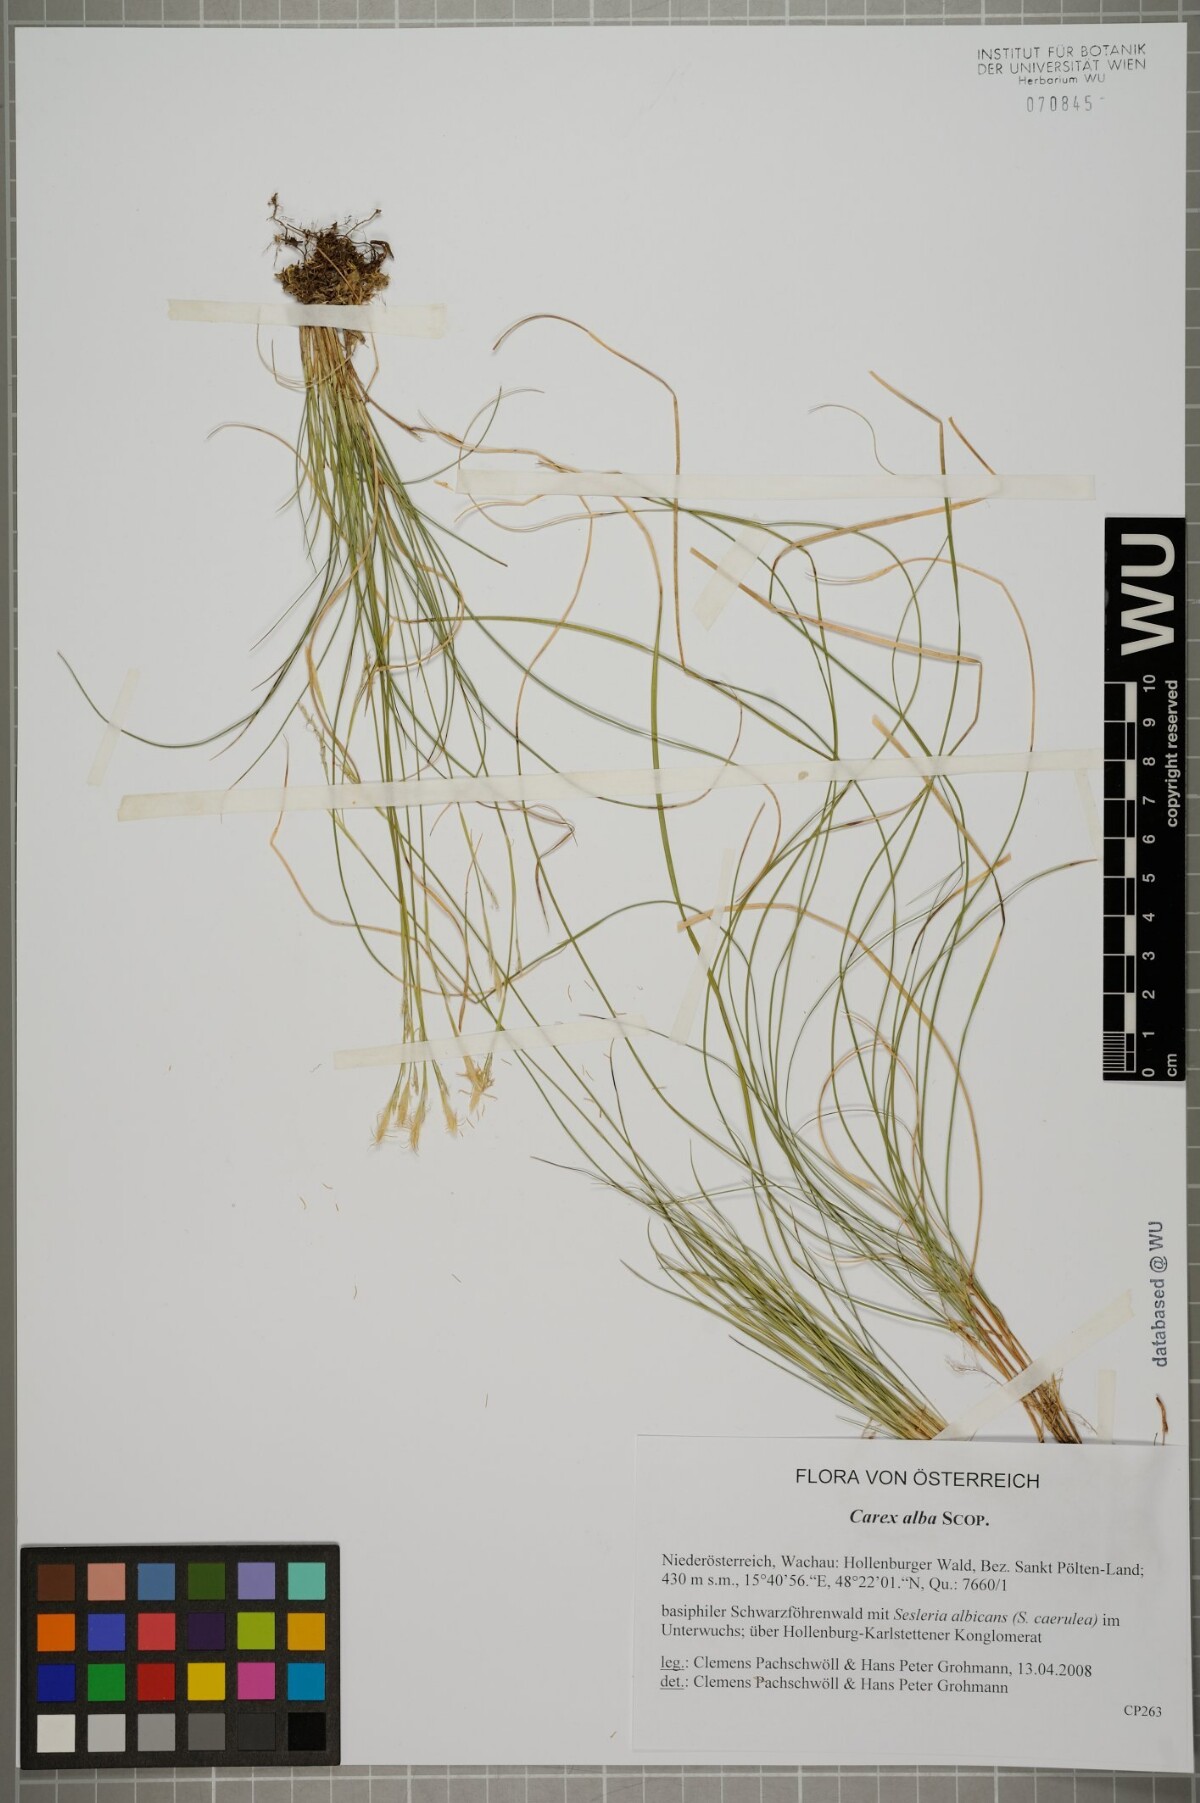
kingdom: Plantae
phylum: Tracheophyta
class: Liliopsida
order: Poales
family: Cyperaceae
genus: Carex
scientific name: Carex alba
